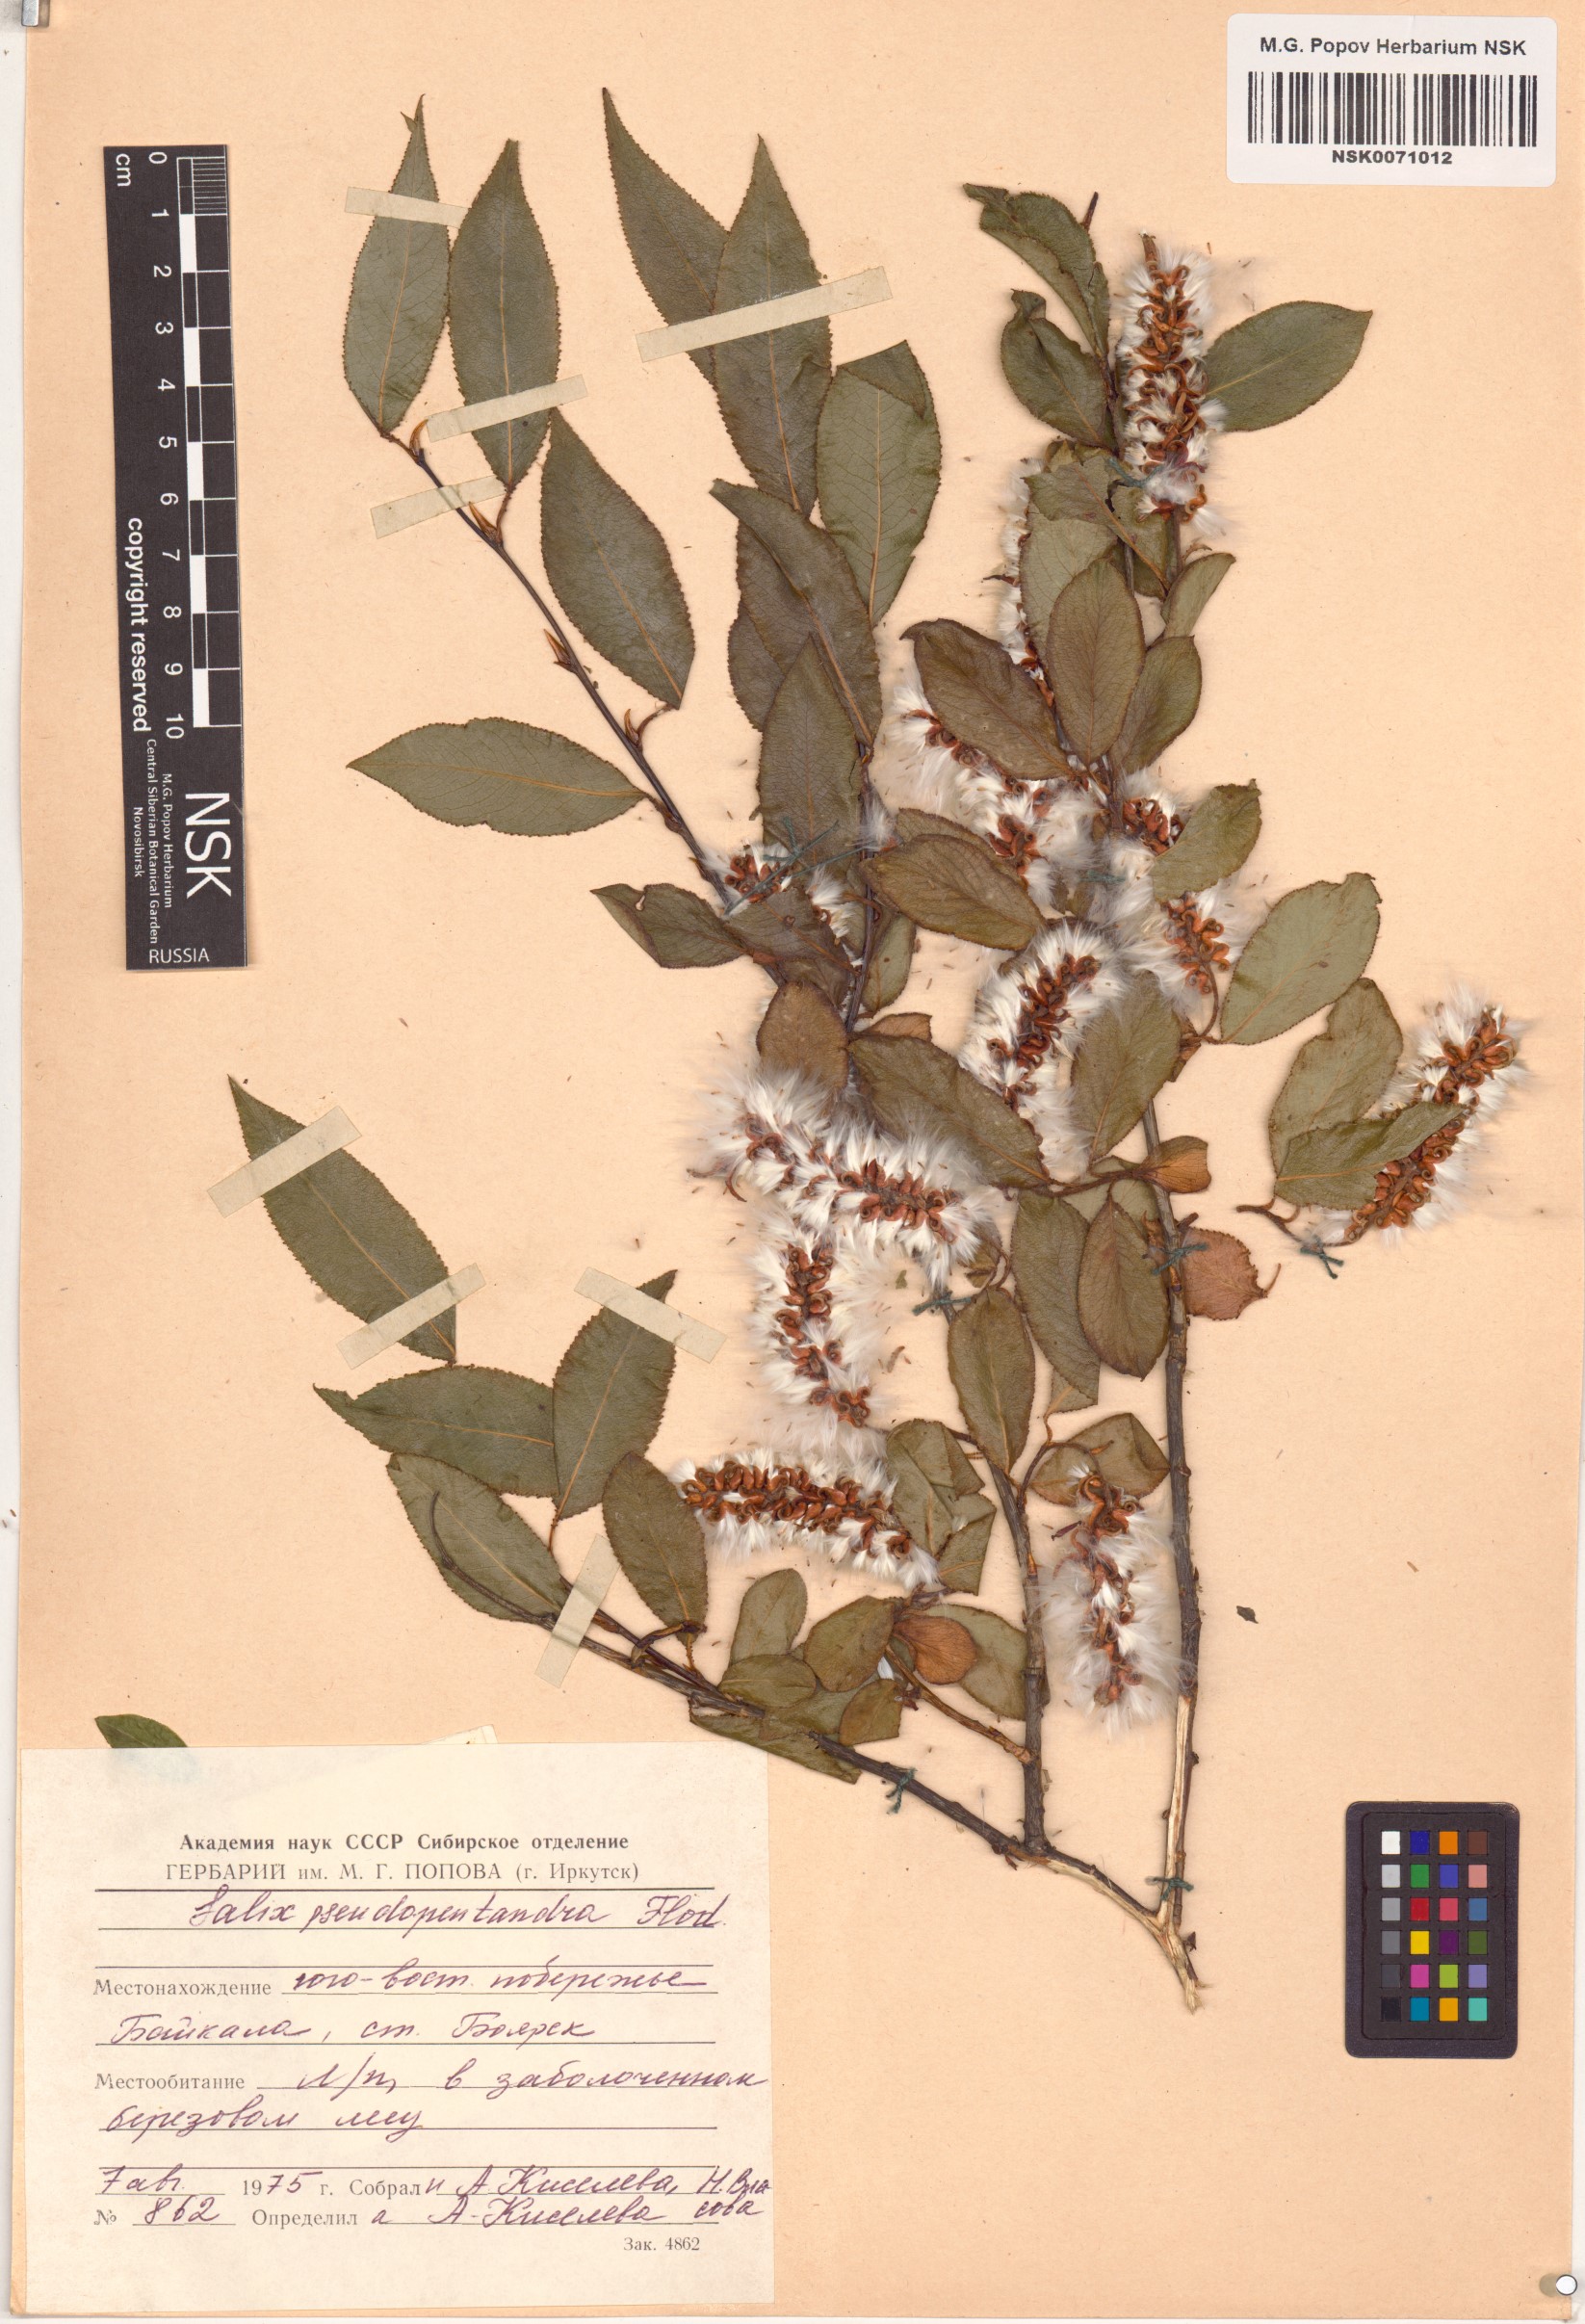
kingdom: Plantae
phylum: Tracheophyta
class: Magnoliopsida
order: Malpighiales
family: Salicaceae
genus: Salix
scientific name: Salix pseudopentandra
